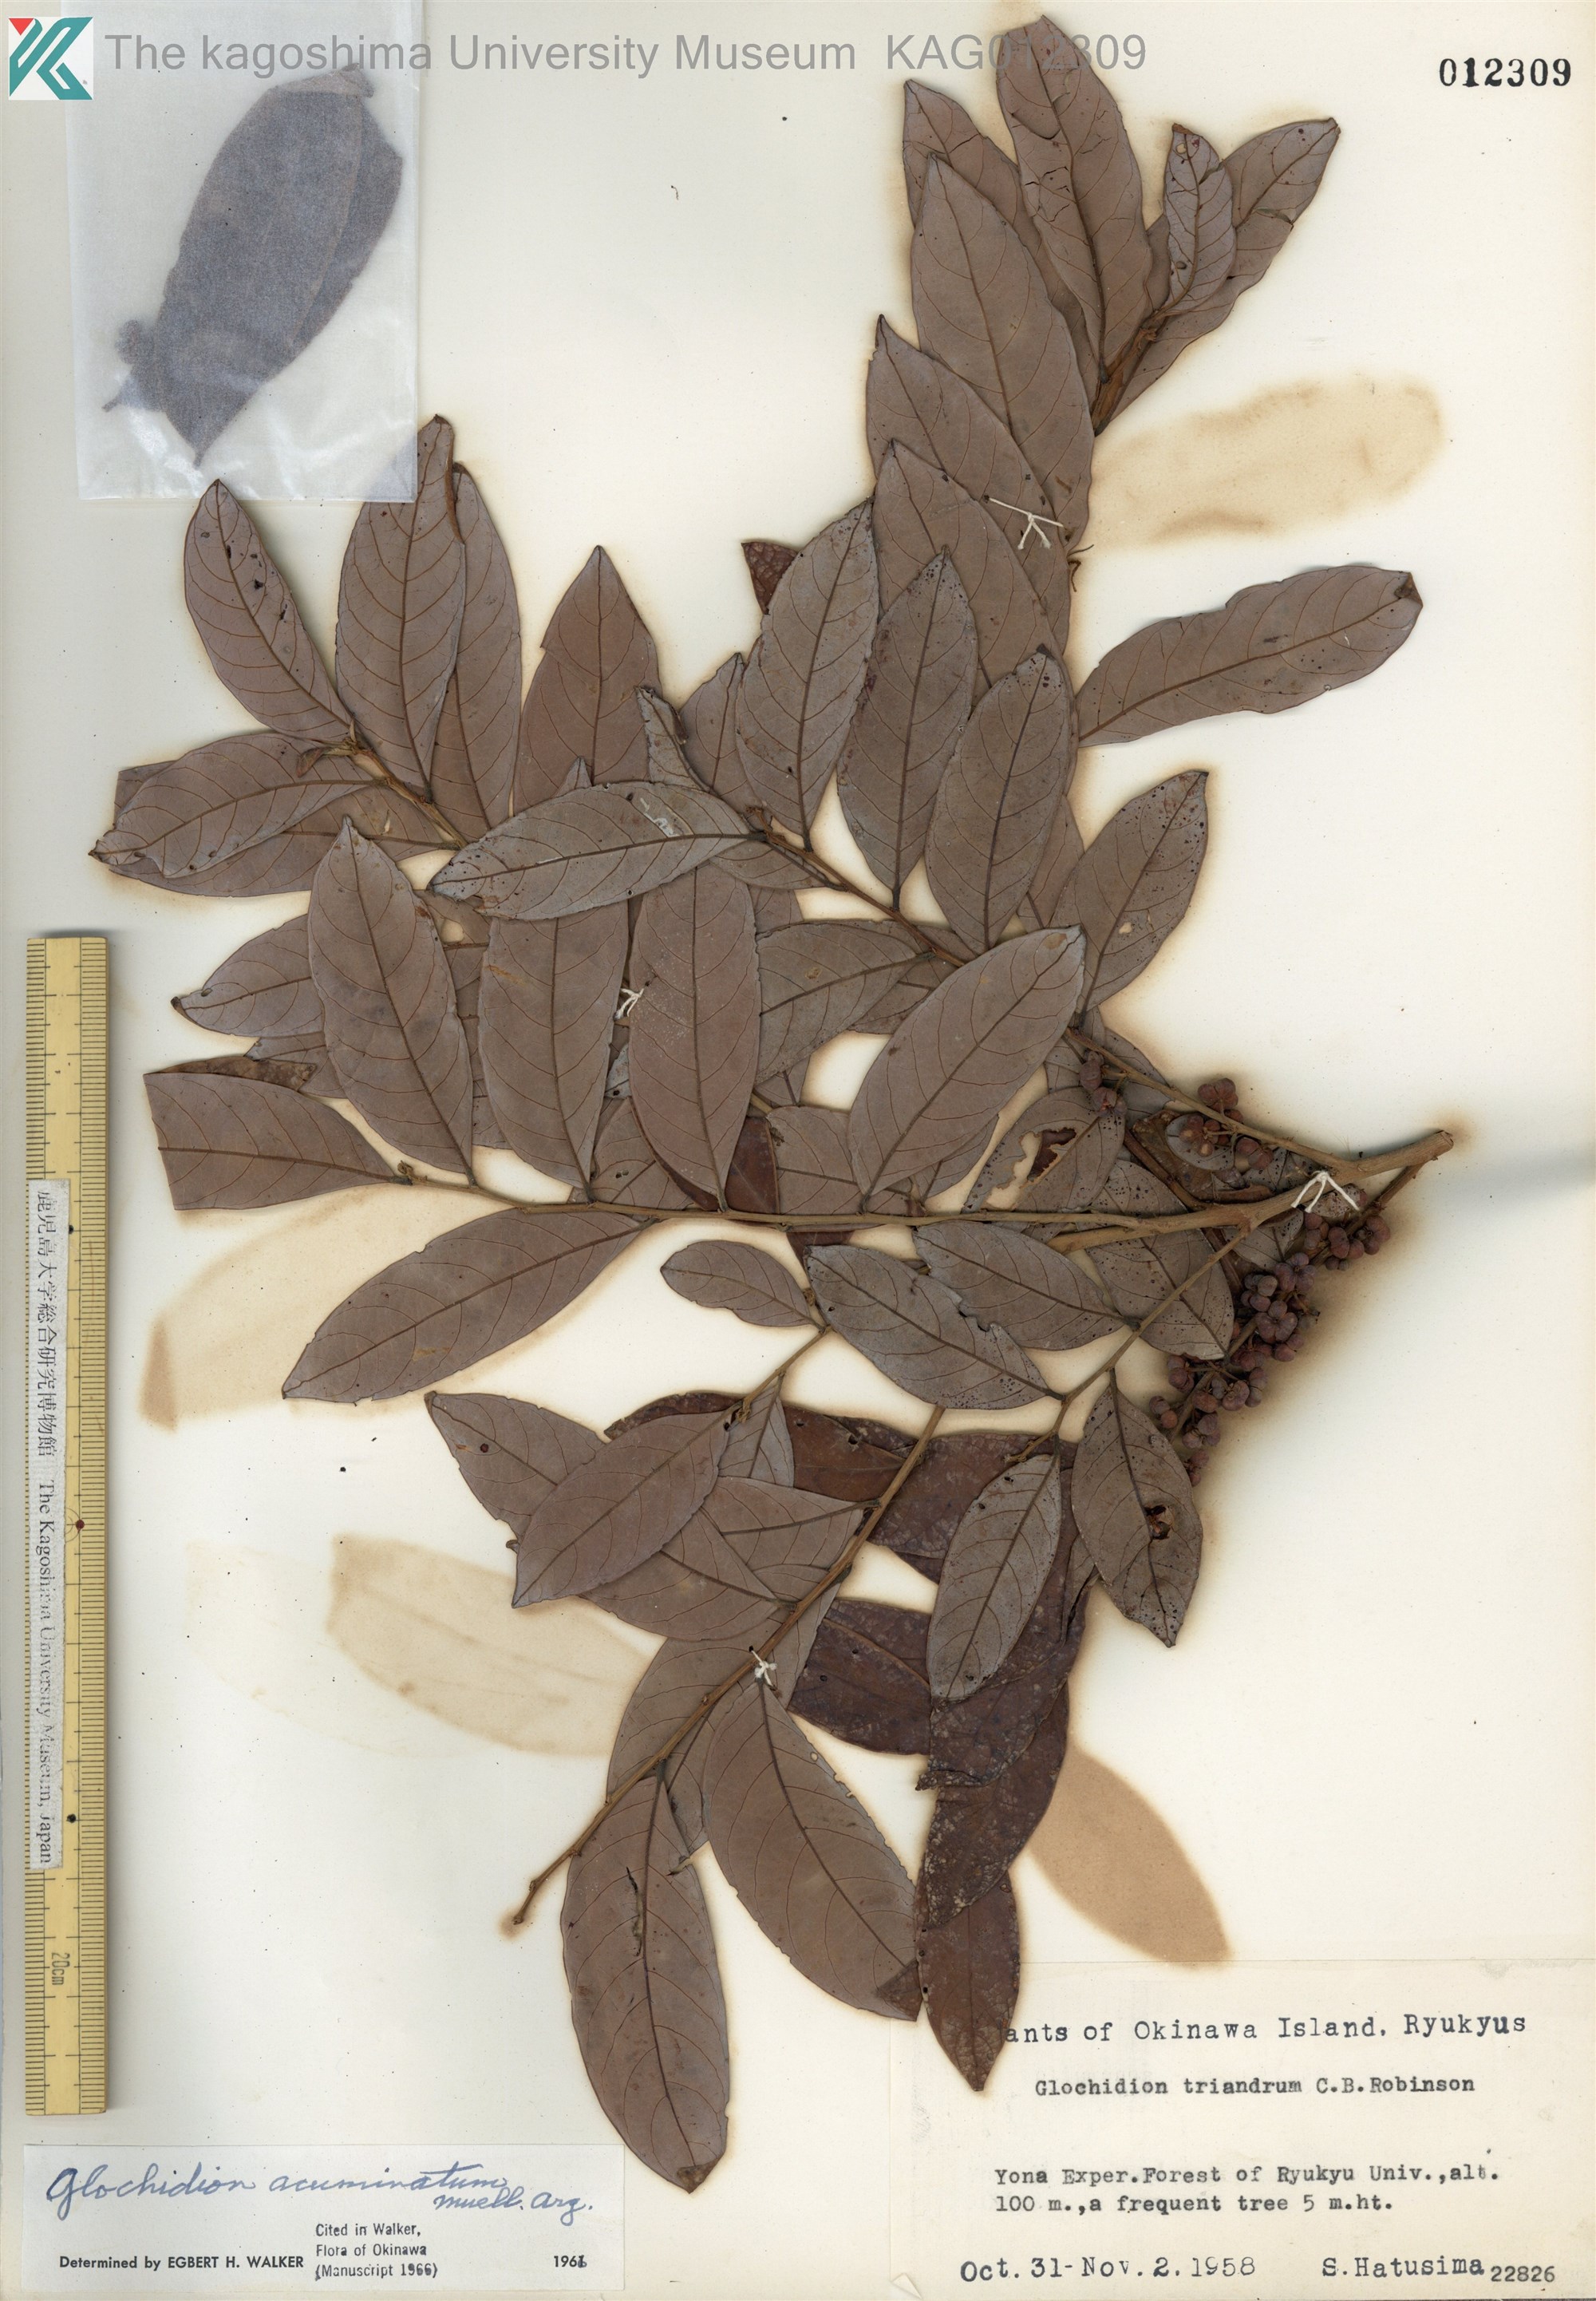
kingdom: Plantae
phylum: Tracheophyta
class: Magnoliopsida
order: Malpighiales
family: Phyllanthaceae
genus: Glochidion
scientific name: Glochidion triandrum
